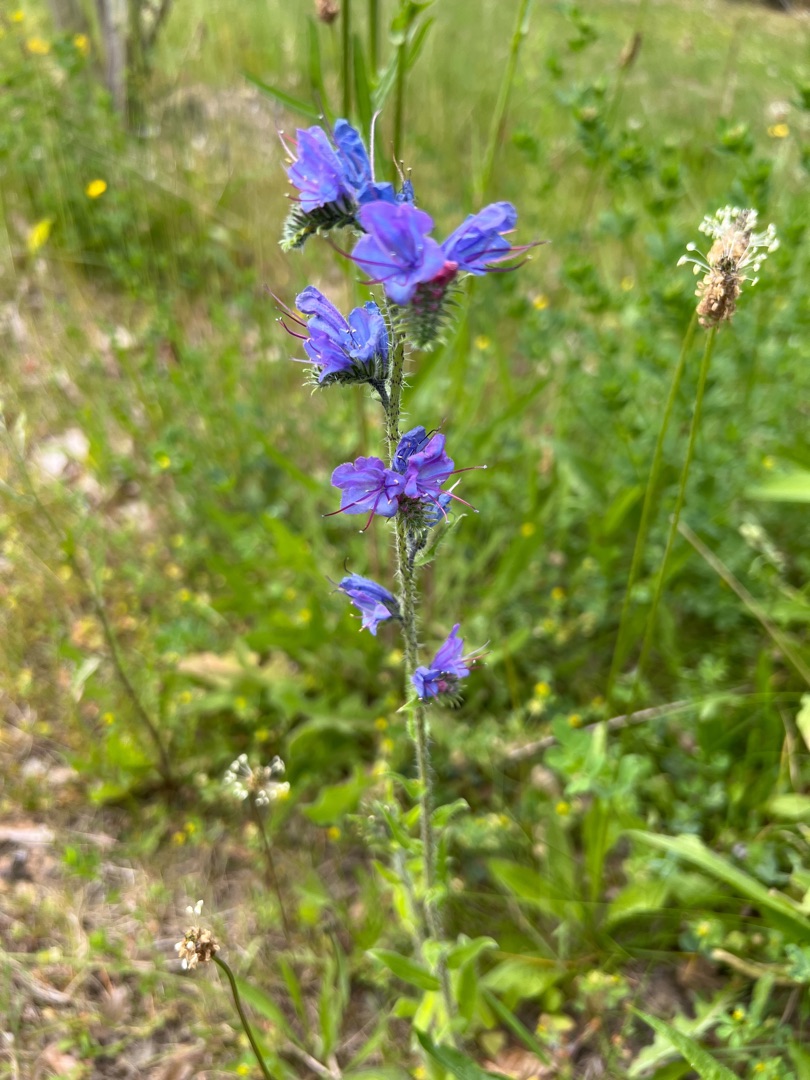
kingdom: Plantae
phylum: Tracheophyta
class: Magnoliopsida
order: Boraginales
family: Boraginaceae
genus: Echium
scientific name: Echium vulgare
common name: Slangehoved
